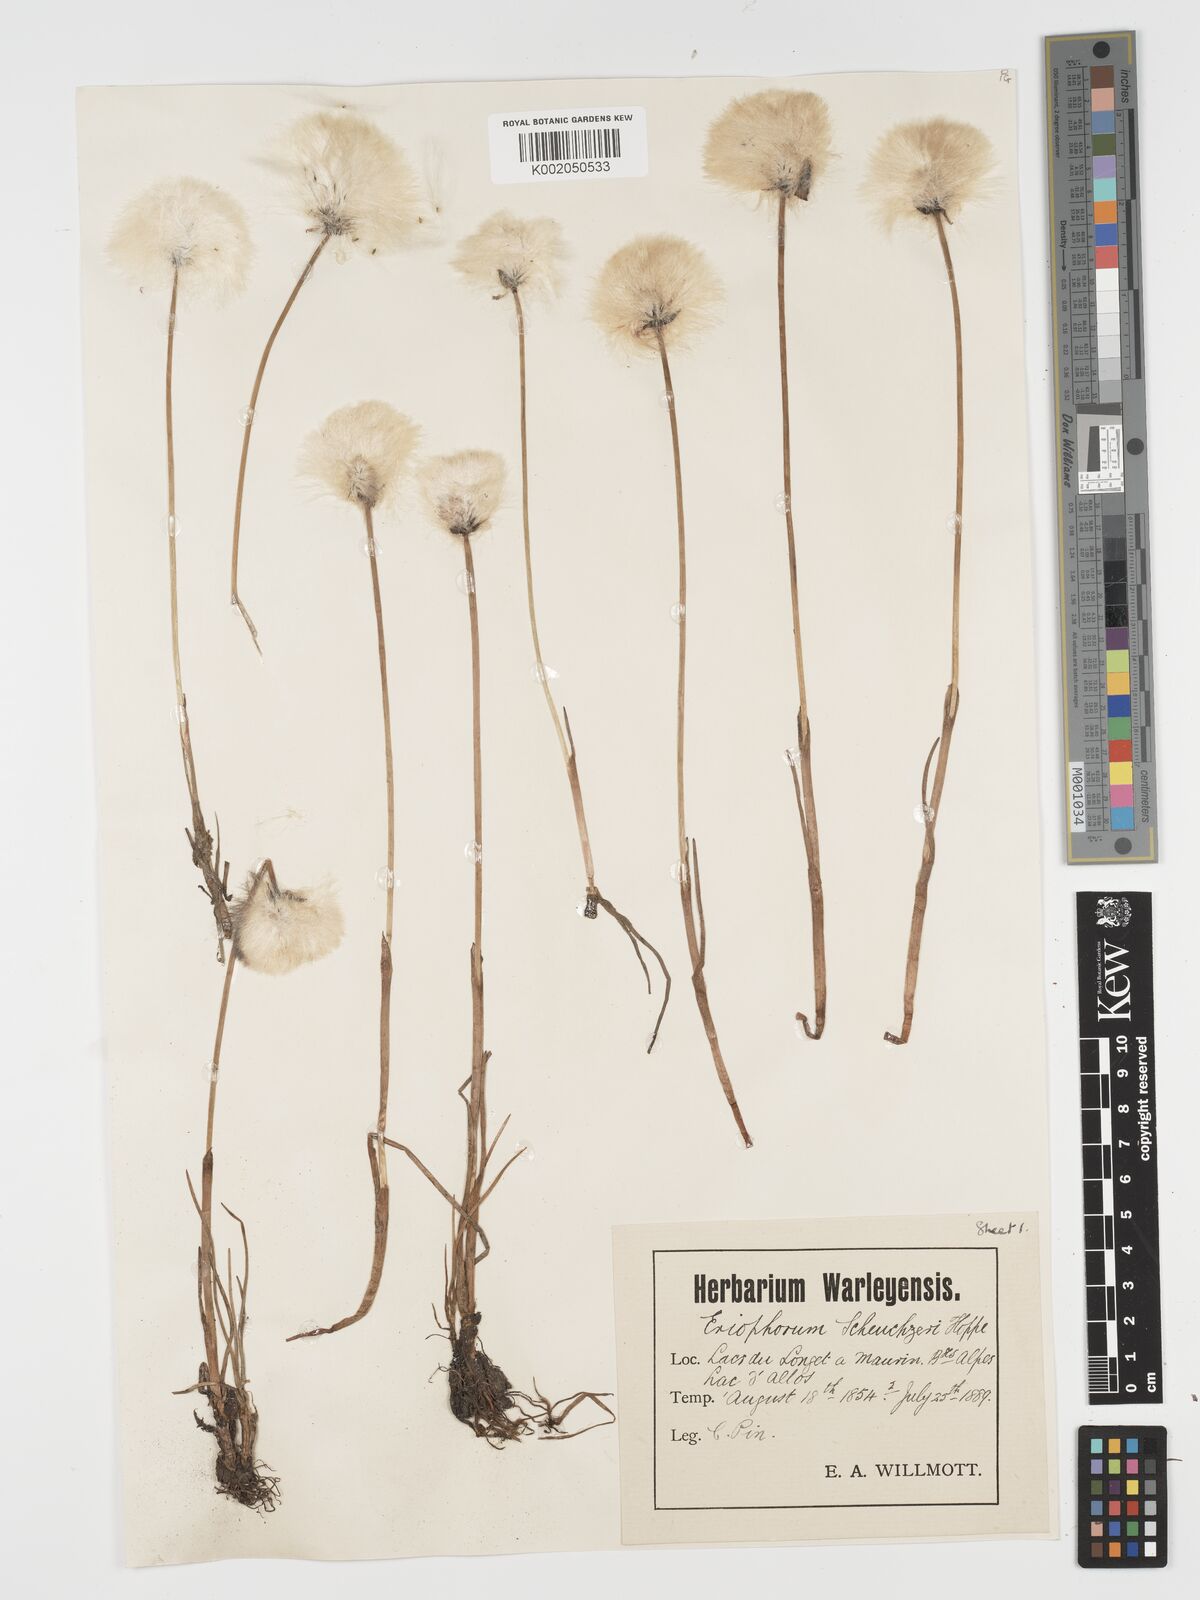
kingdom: Plantae
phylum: Tracheophyta
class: Liliopsida
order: Poales
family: Cyperaceae
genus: Eriophorum
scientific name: Eriophorum scheuchzeri
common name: Scheuchzer's cottongrass
